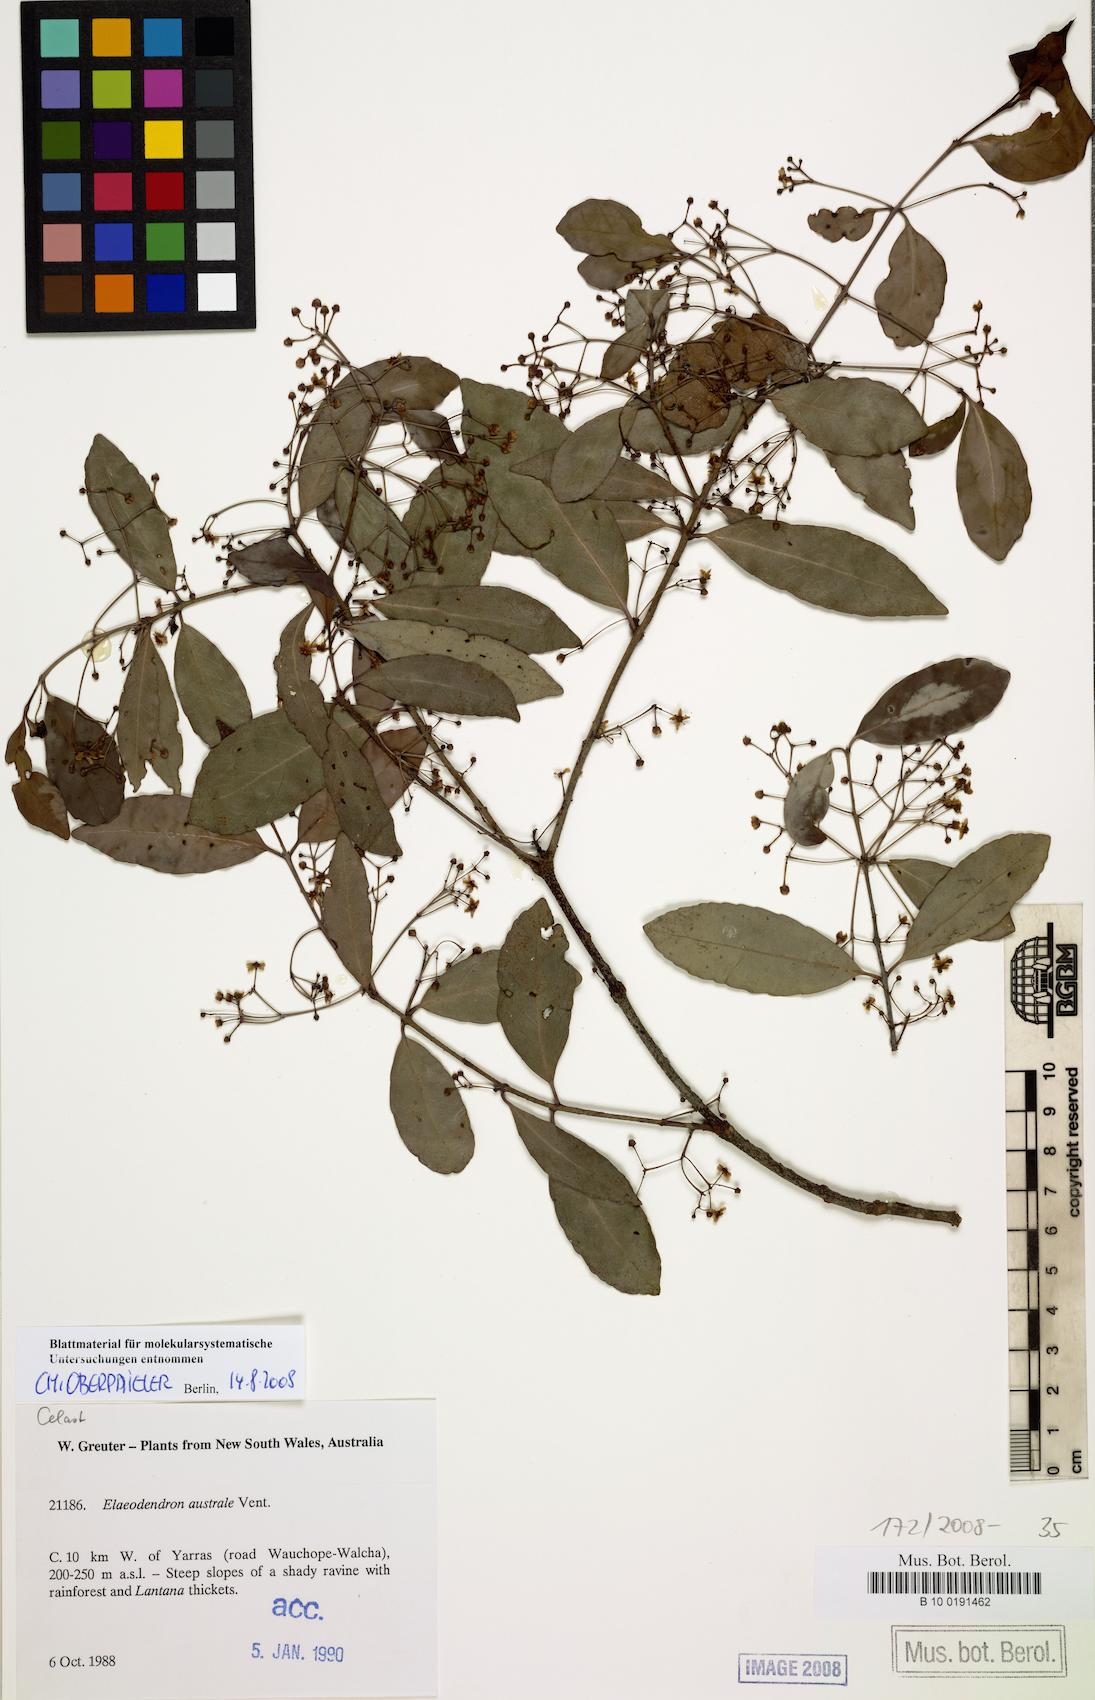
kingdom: Plantae
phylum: Tracheophyta
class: Magnoliopsida
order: Celastrales
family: Celastraceae
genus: Elaeodendron
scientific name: Elaeodendron australe
